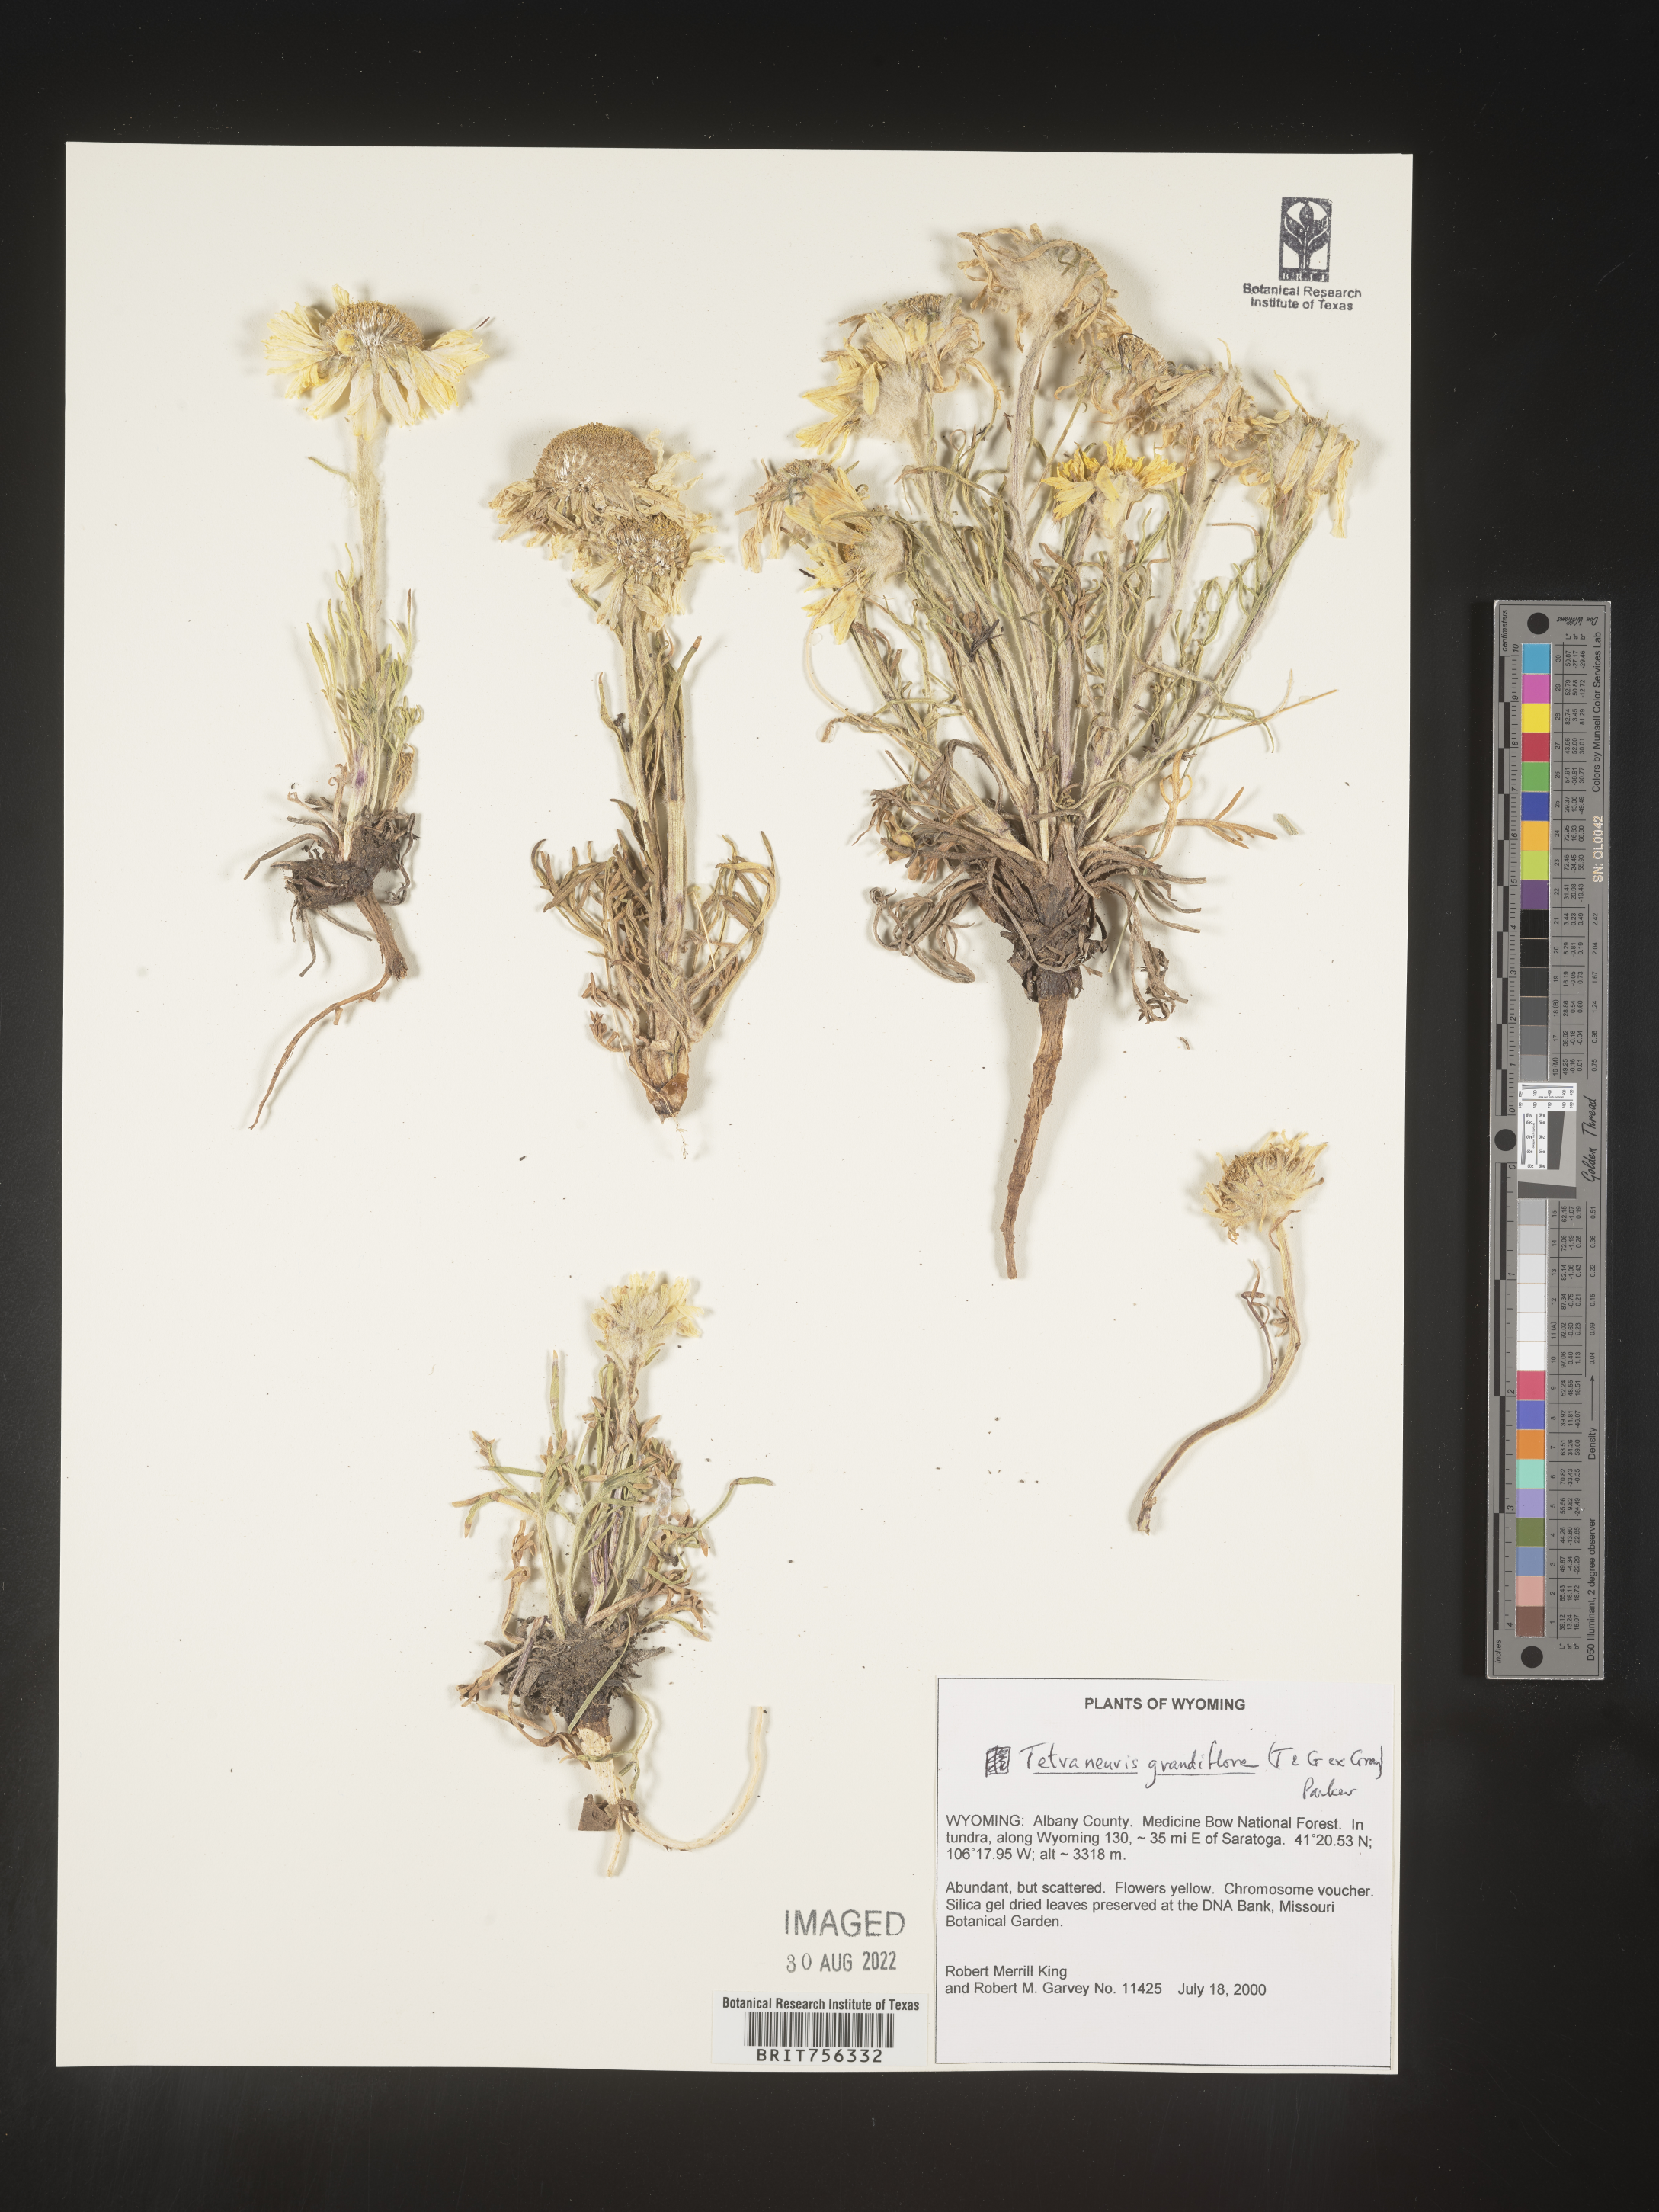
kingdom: Plantae
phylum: Tracheophyta
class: Magnoliopsida
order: Asterales
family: Asteraceae
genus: Hymenoxys
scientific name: Hymenoxys grandiflora
